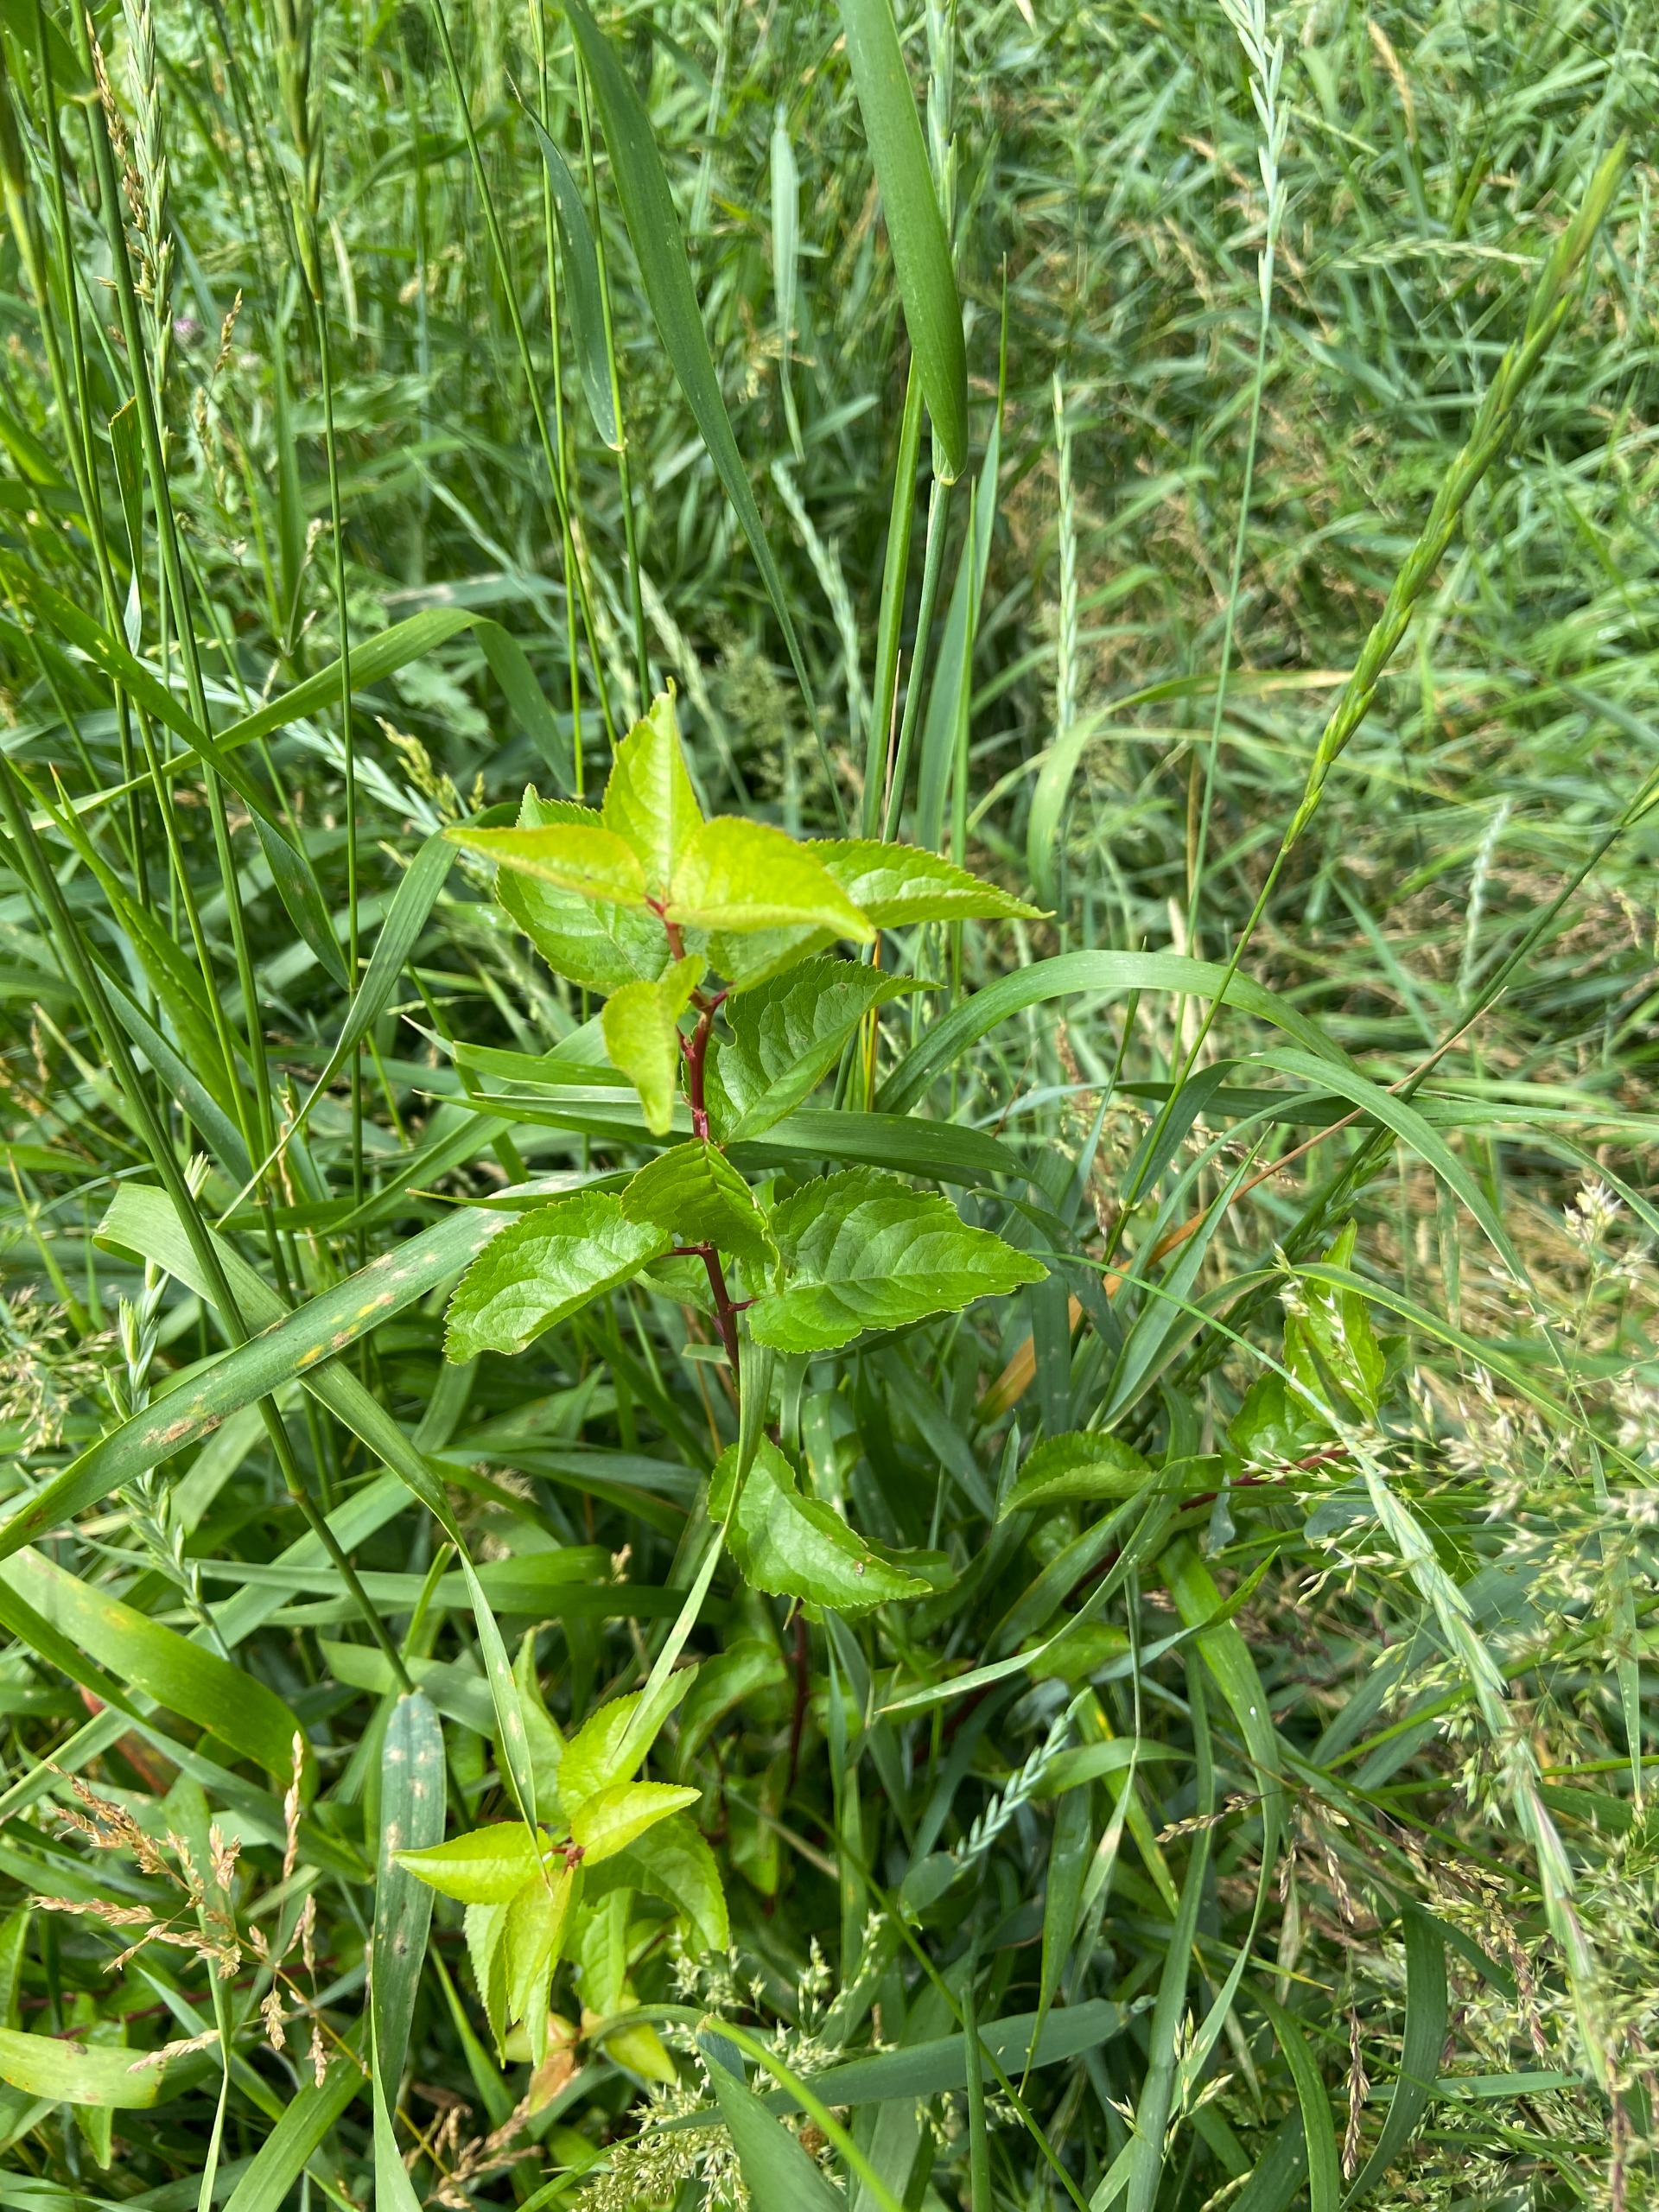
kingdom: Plantae
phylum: Tracheophyta
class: Magnoliopsida
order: Rosales
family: Rosaceae
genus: Prunus
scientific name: Prunus avium
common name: Fugle-kirsebær
